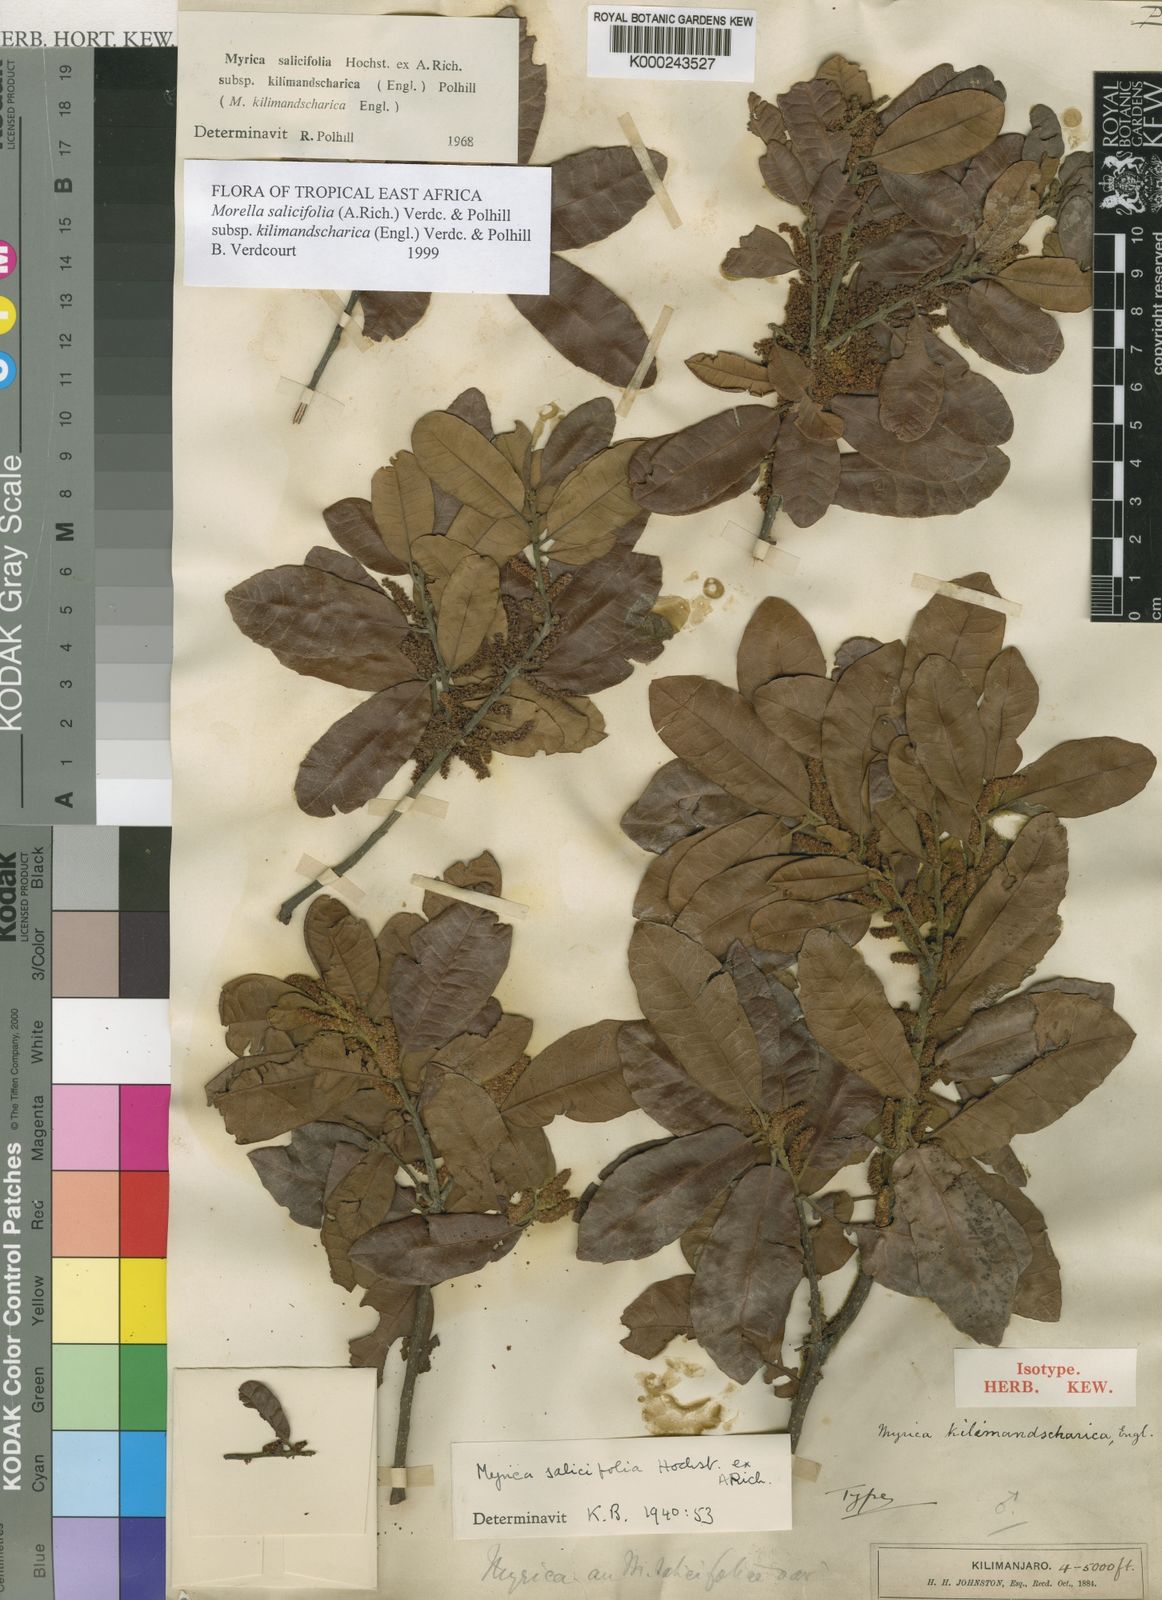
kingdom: Plantae
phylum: Tracheophyta
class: Magnoliopsida
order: Fagales
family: Myricaceae
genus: Morella
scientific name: Morella salicifolia
